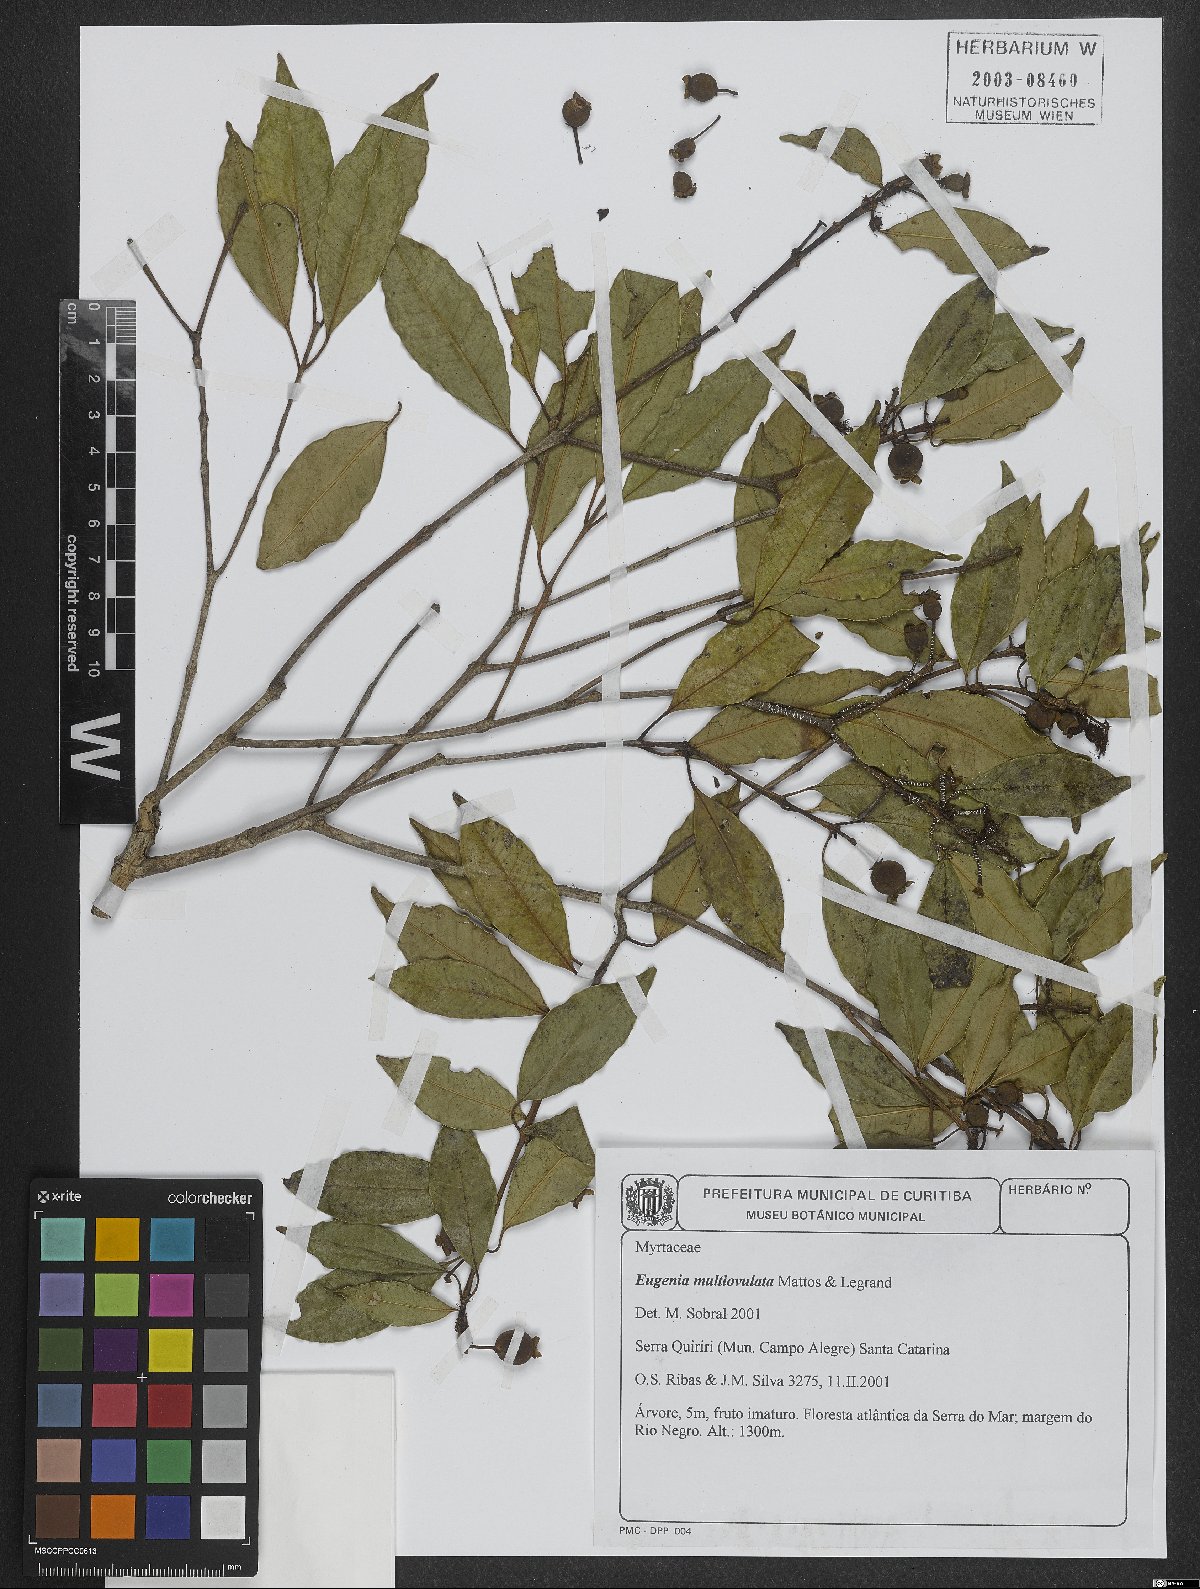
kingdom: Plantae
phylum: Tracheophyta
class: Magnoliopsida
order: Myrtales
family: Myrtaceae
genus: Eugenia
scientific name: Eugenia multiovulata
